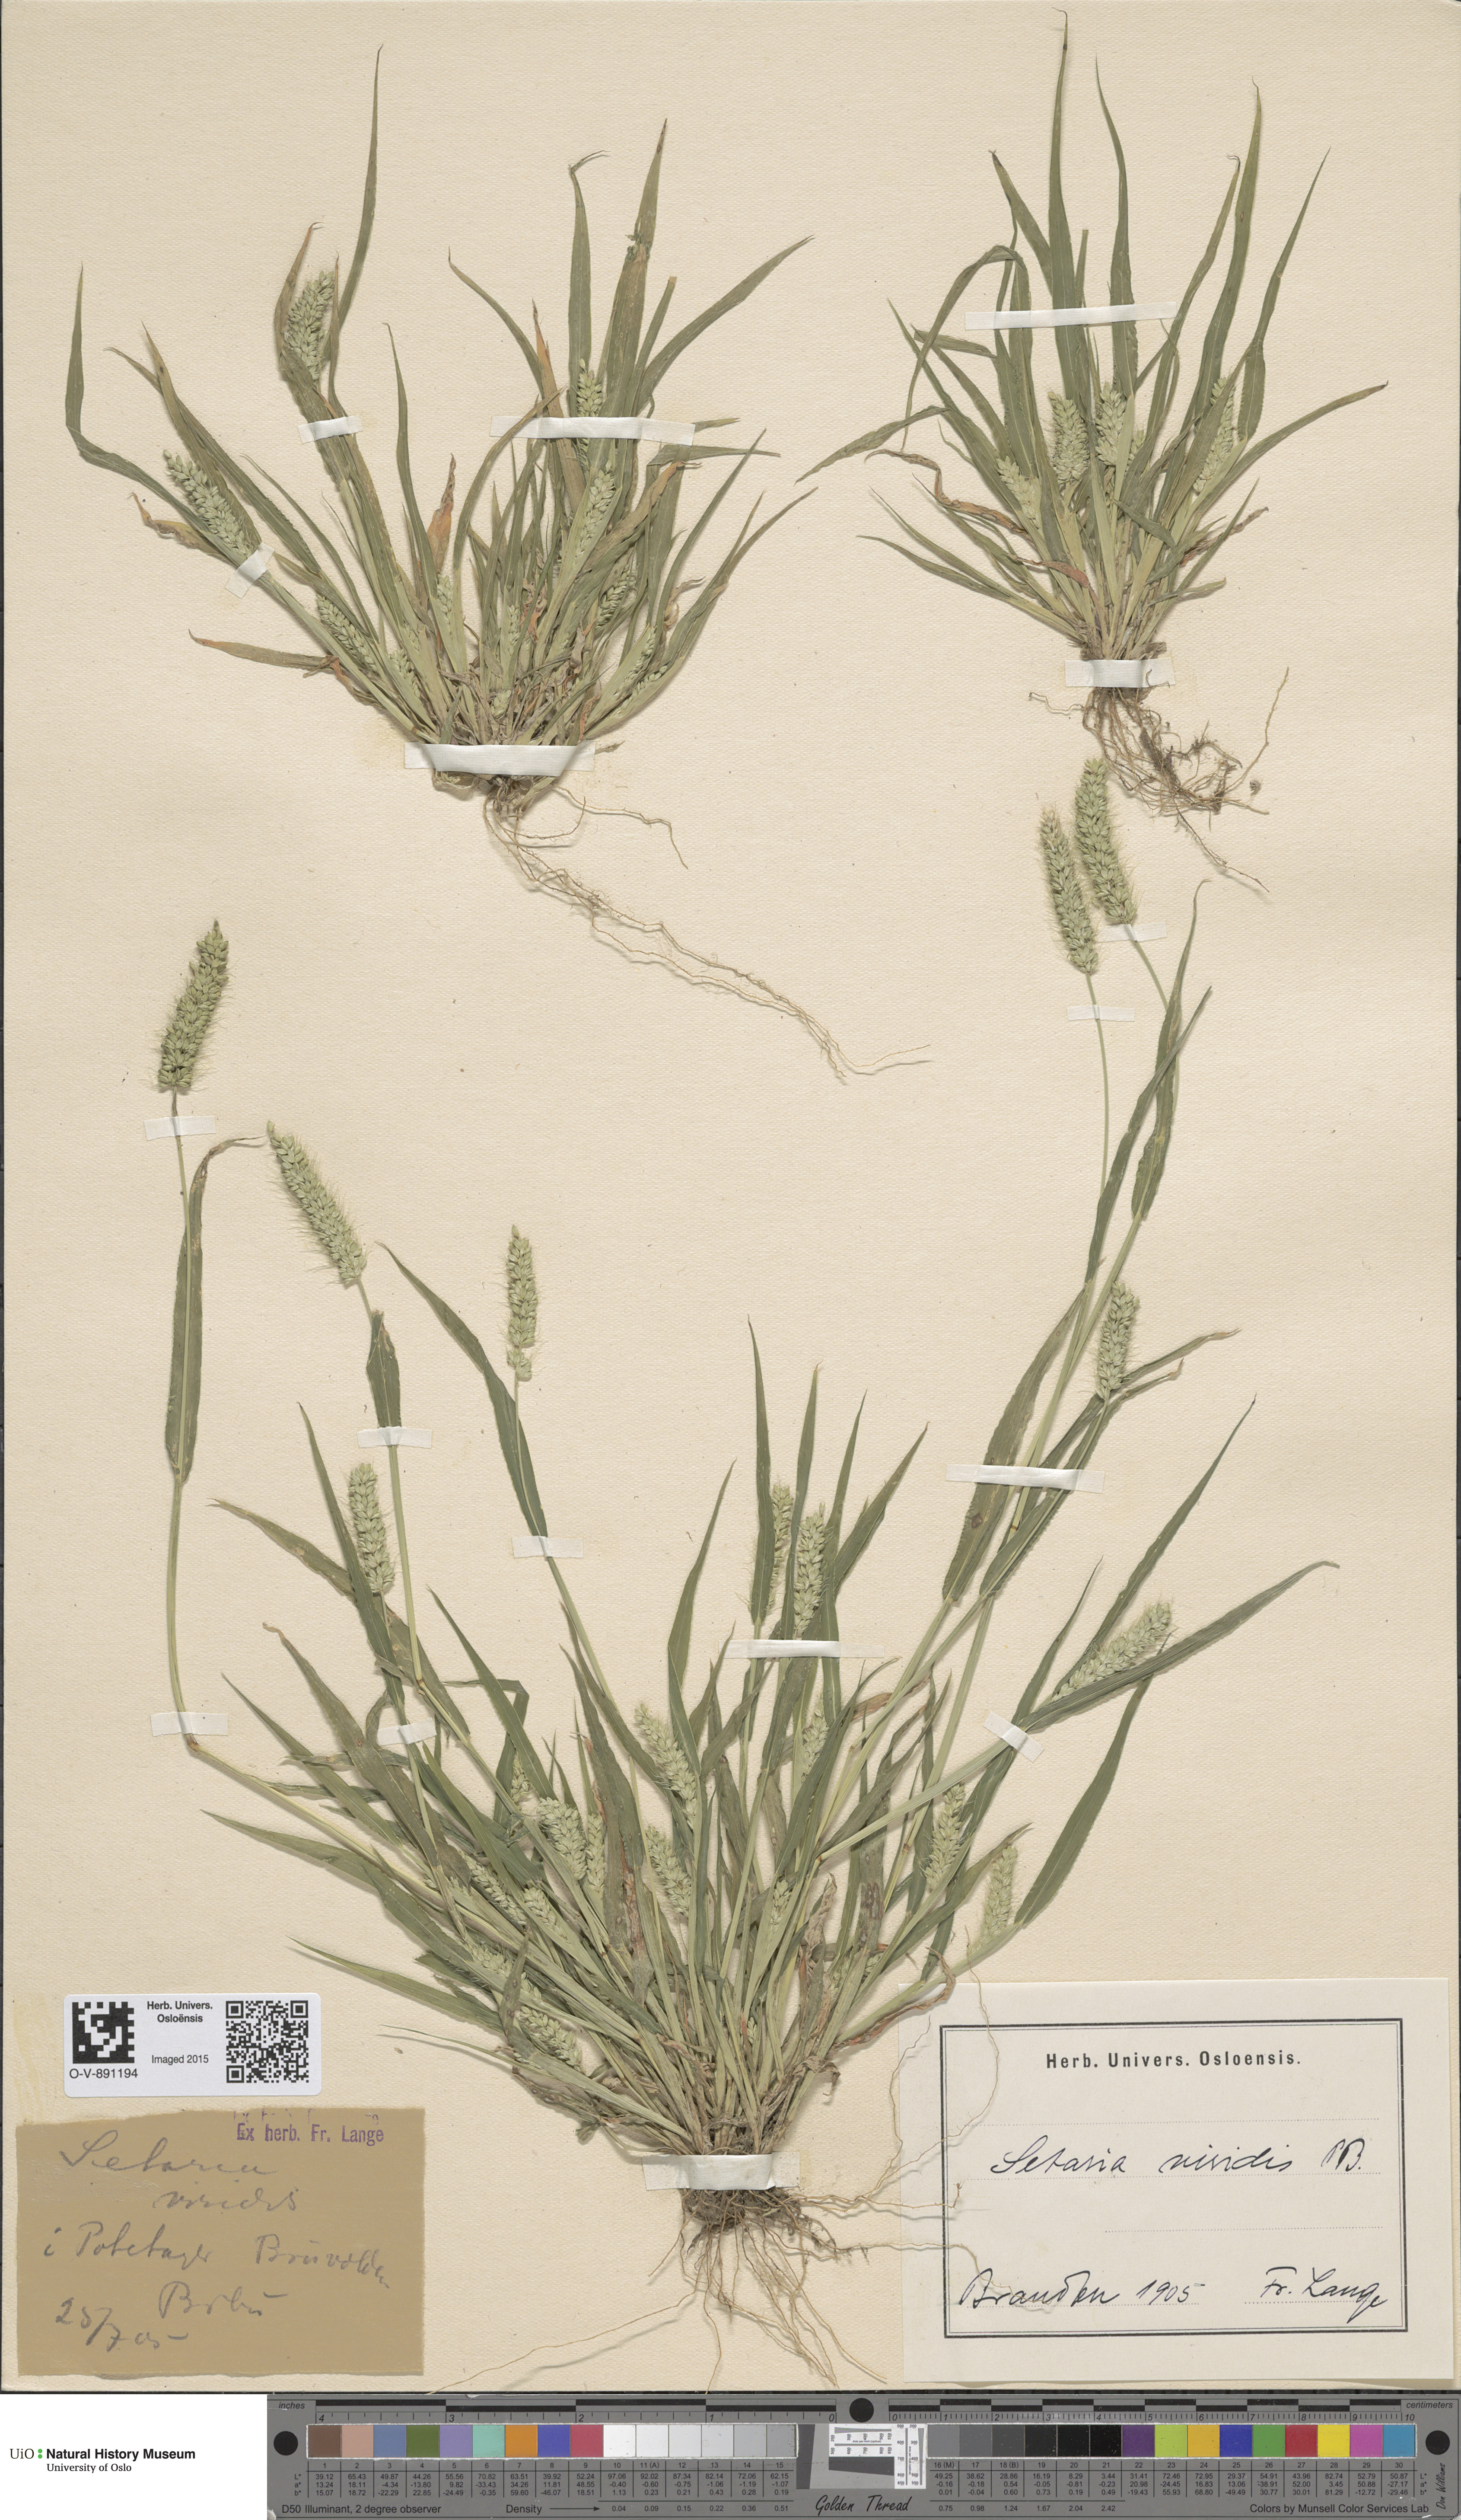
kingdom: Plantae
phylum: Tracheophyta
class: Liliopsida
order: Poales
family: Poaceae
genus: Setaria
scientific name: Setaria viridis
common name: Green bristlegrass
